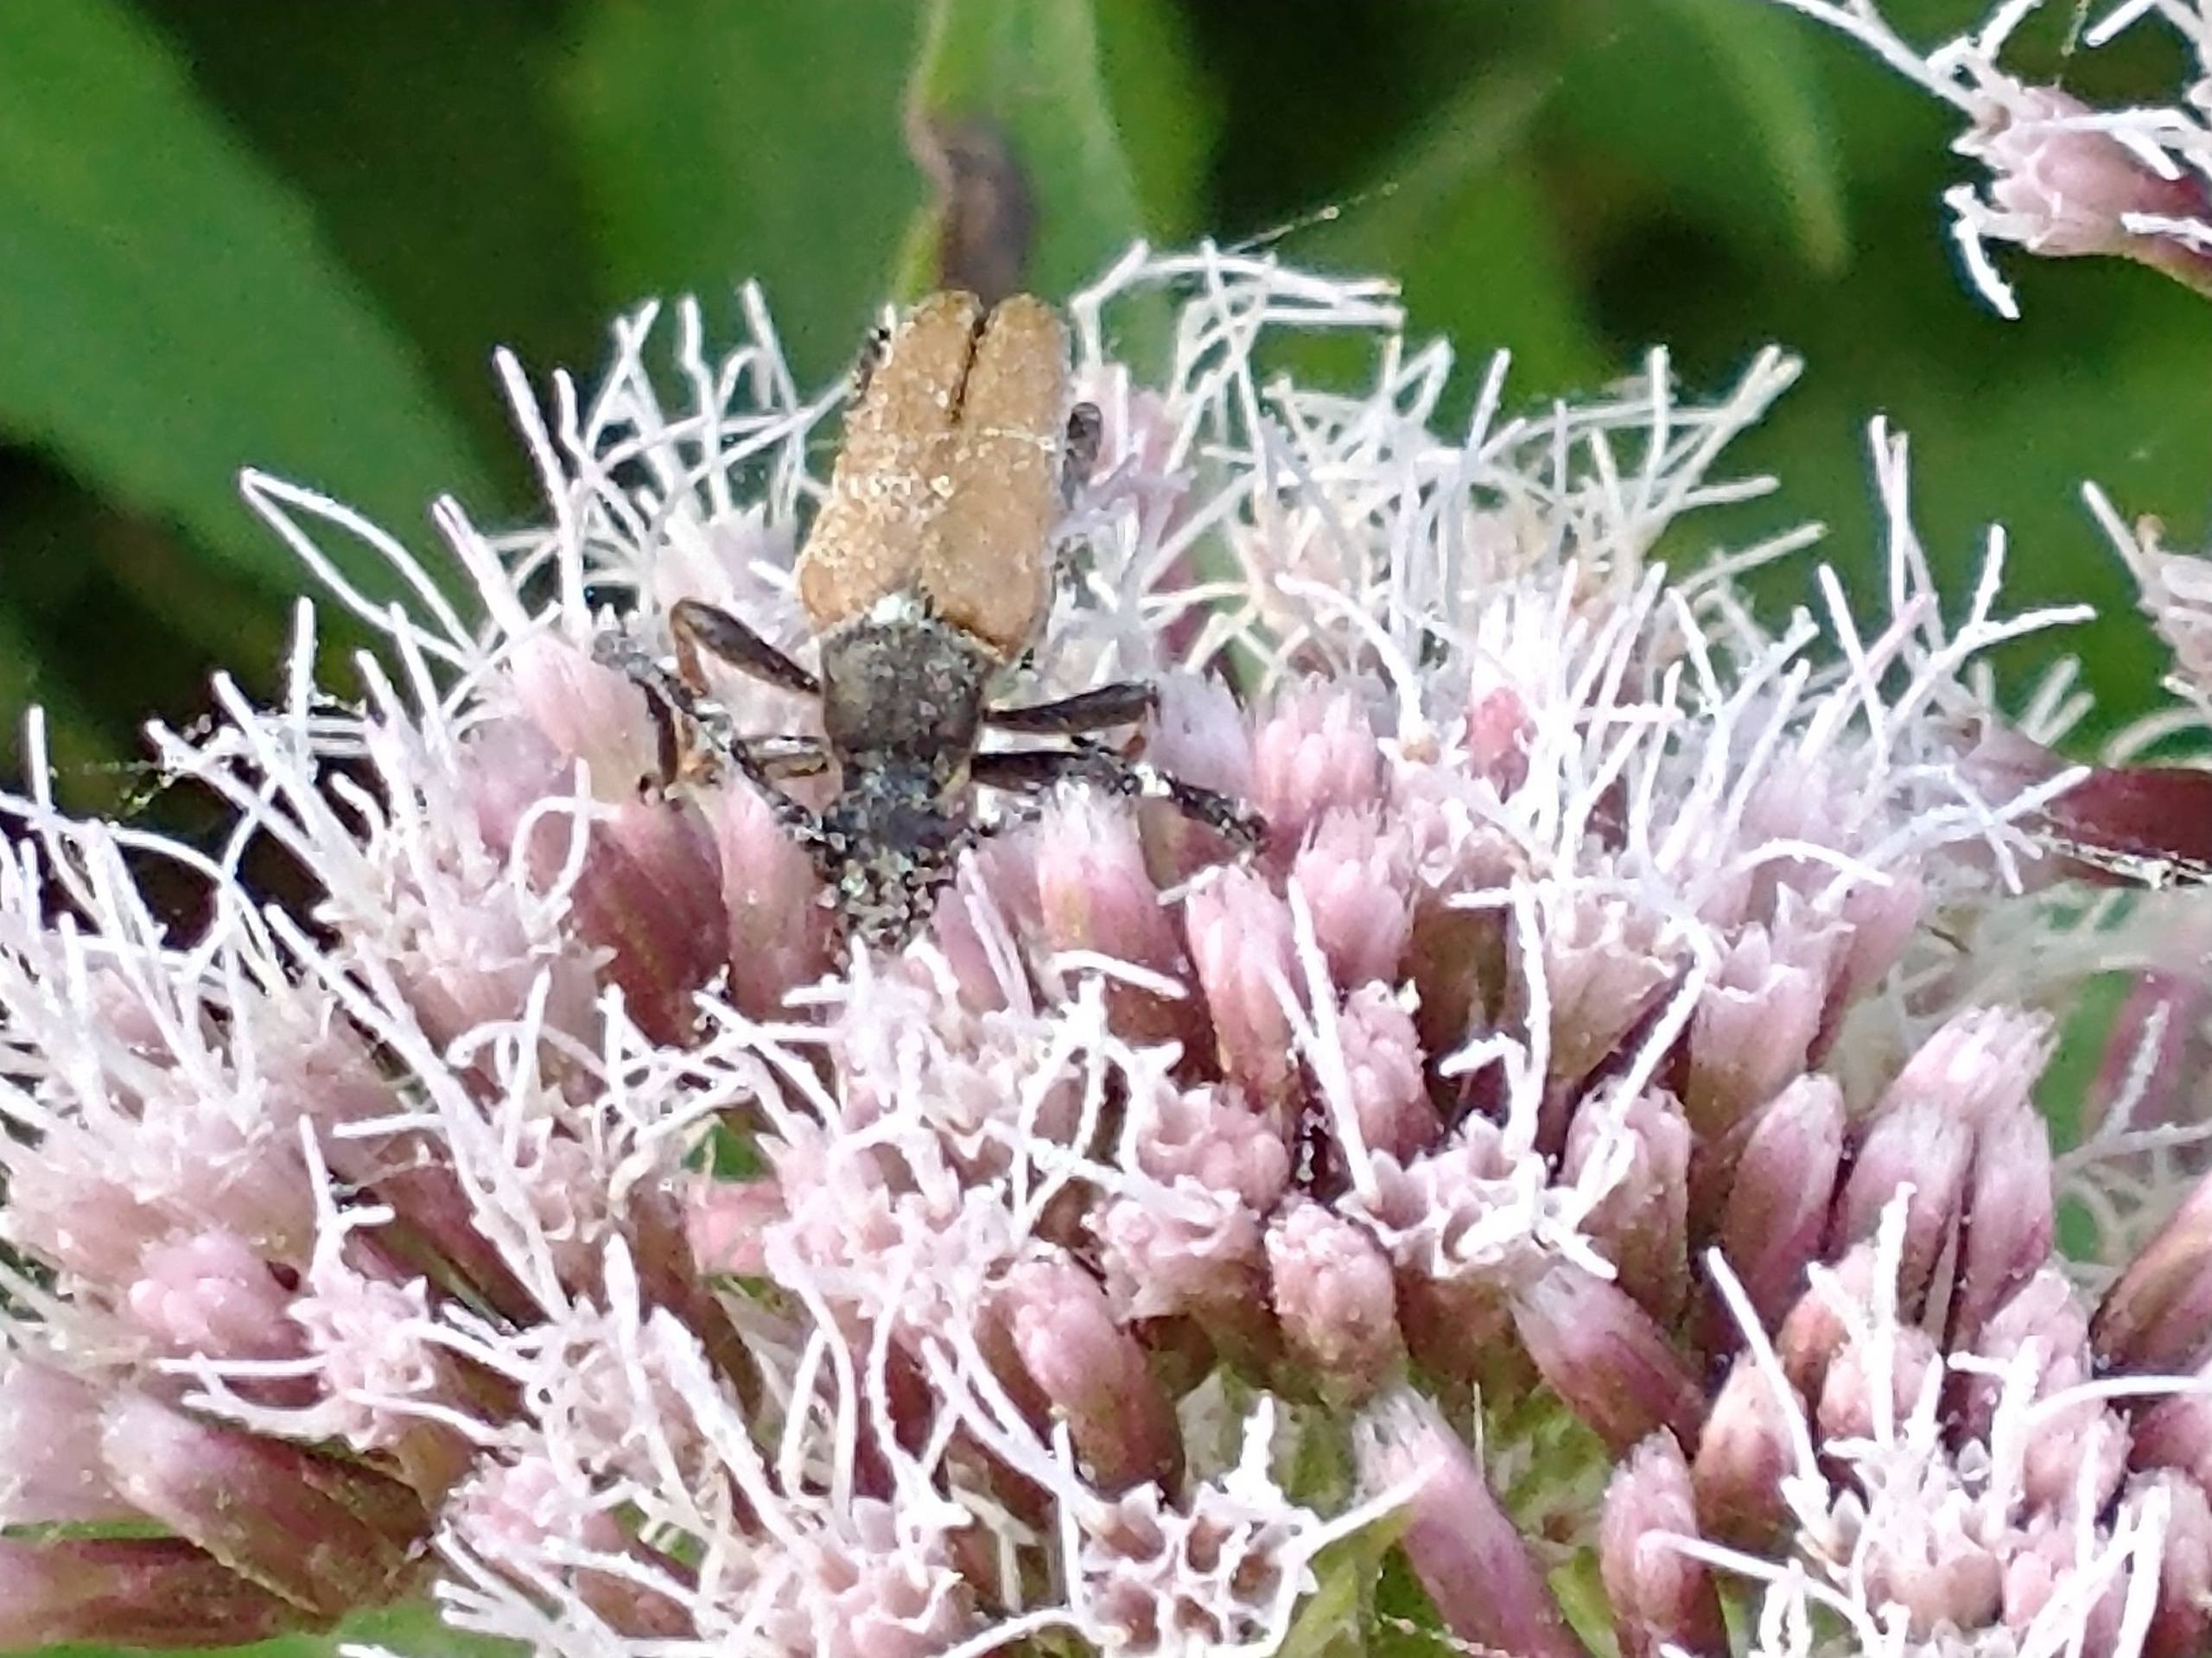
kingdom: Animalia
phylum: Arthropoda
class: Insecta
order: Coleoptera
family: Cerambycidae
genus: Stictoleptura
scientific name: Stictoleptura rubra
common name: Rød blomsterbuk
